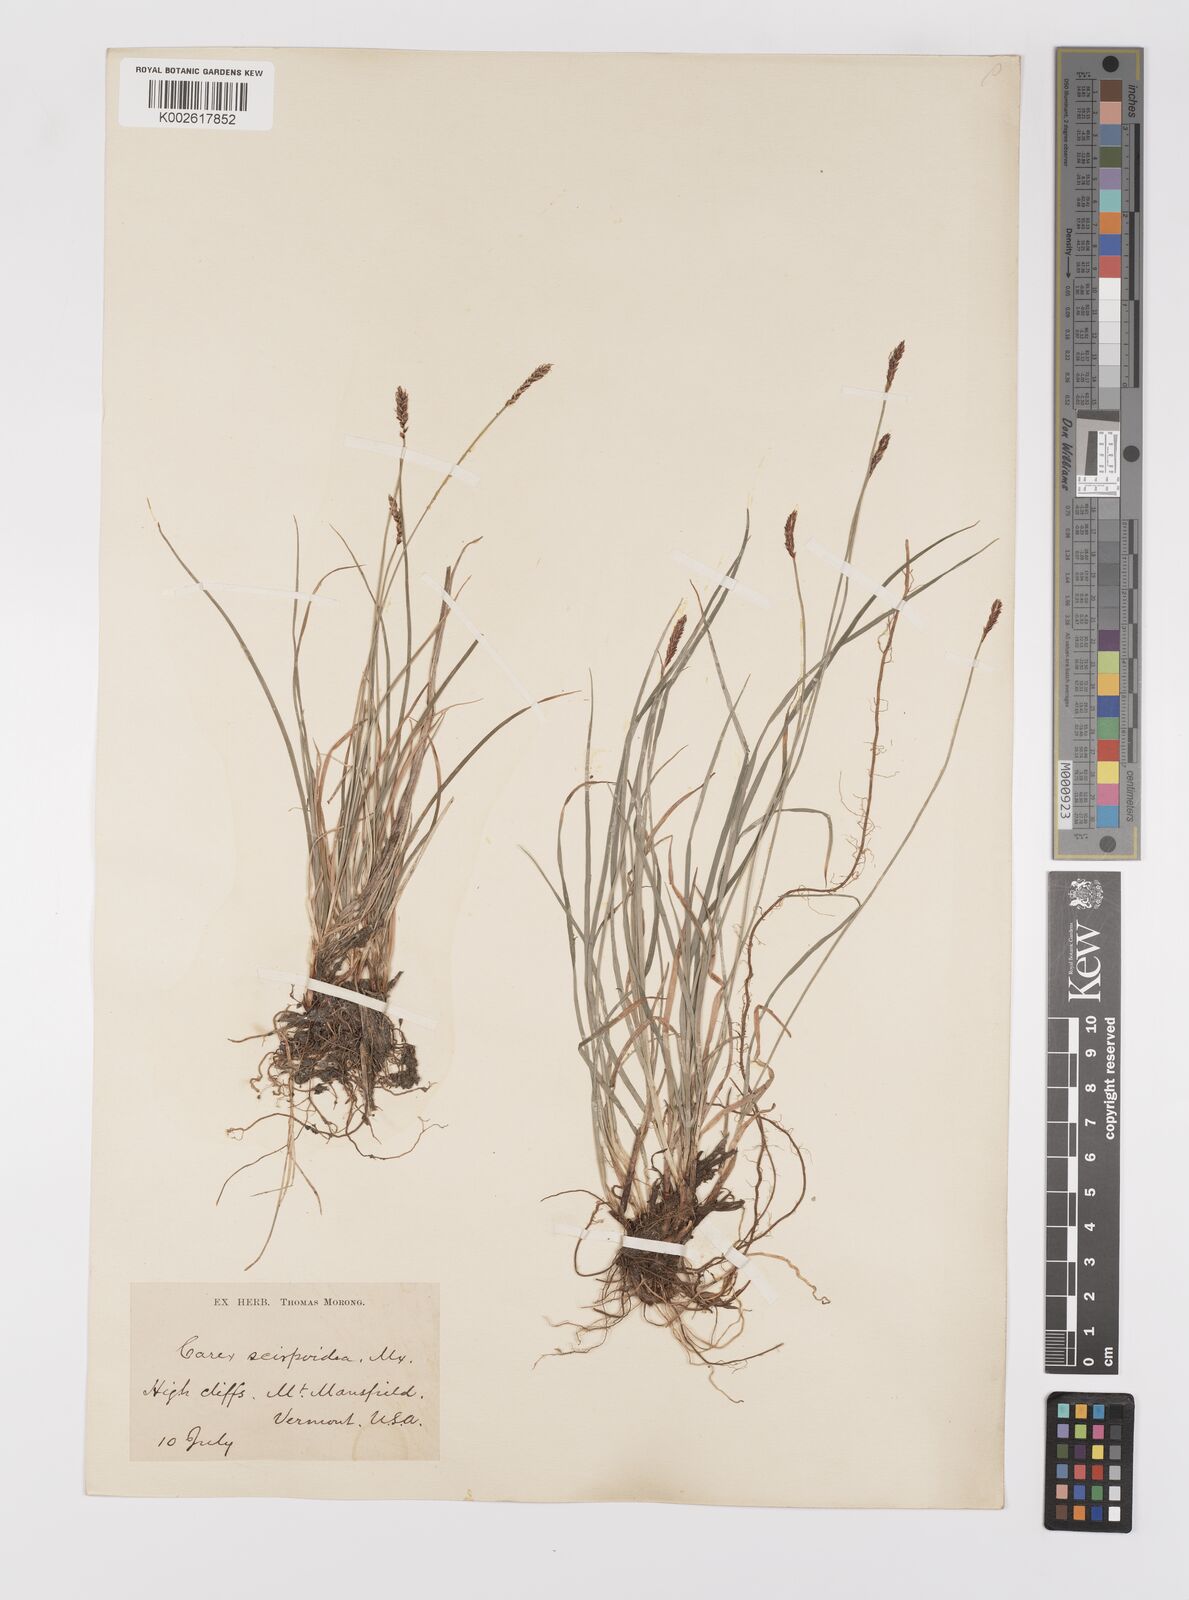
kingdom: Plantae
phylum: Tracheophyta
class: Liliopsida
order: Poales
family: Cyperaceae
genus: Carex
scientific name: Carex scirpoidea
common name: Canada single-spike sedge
